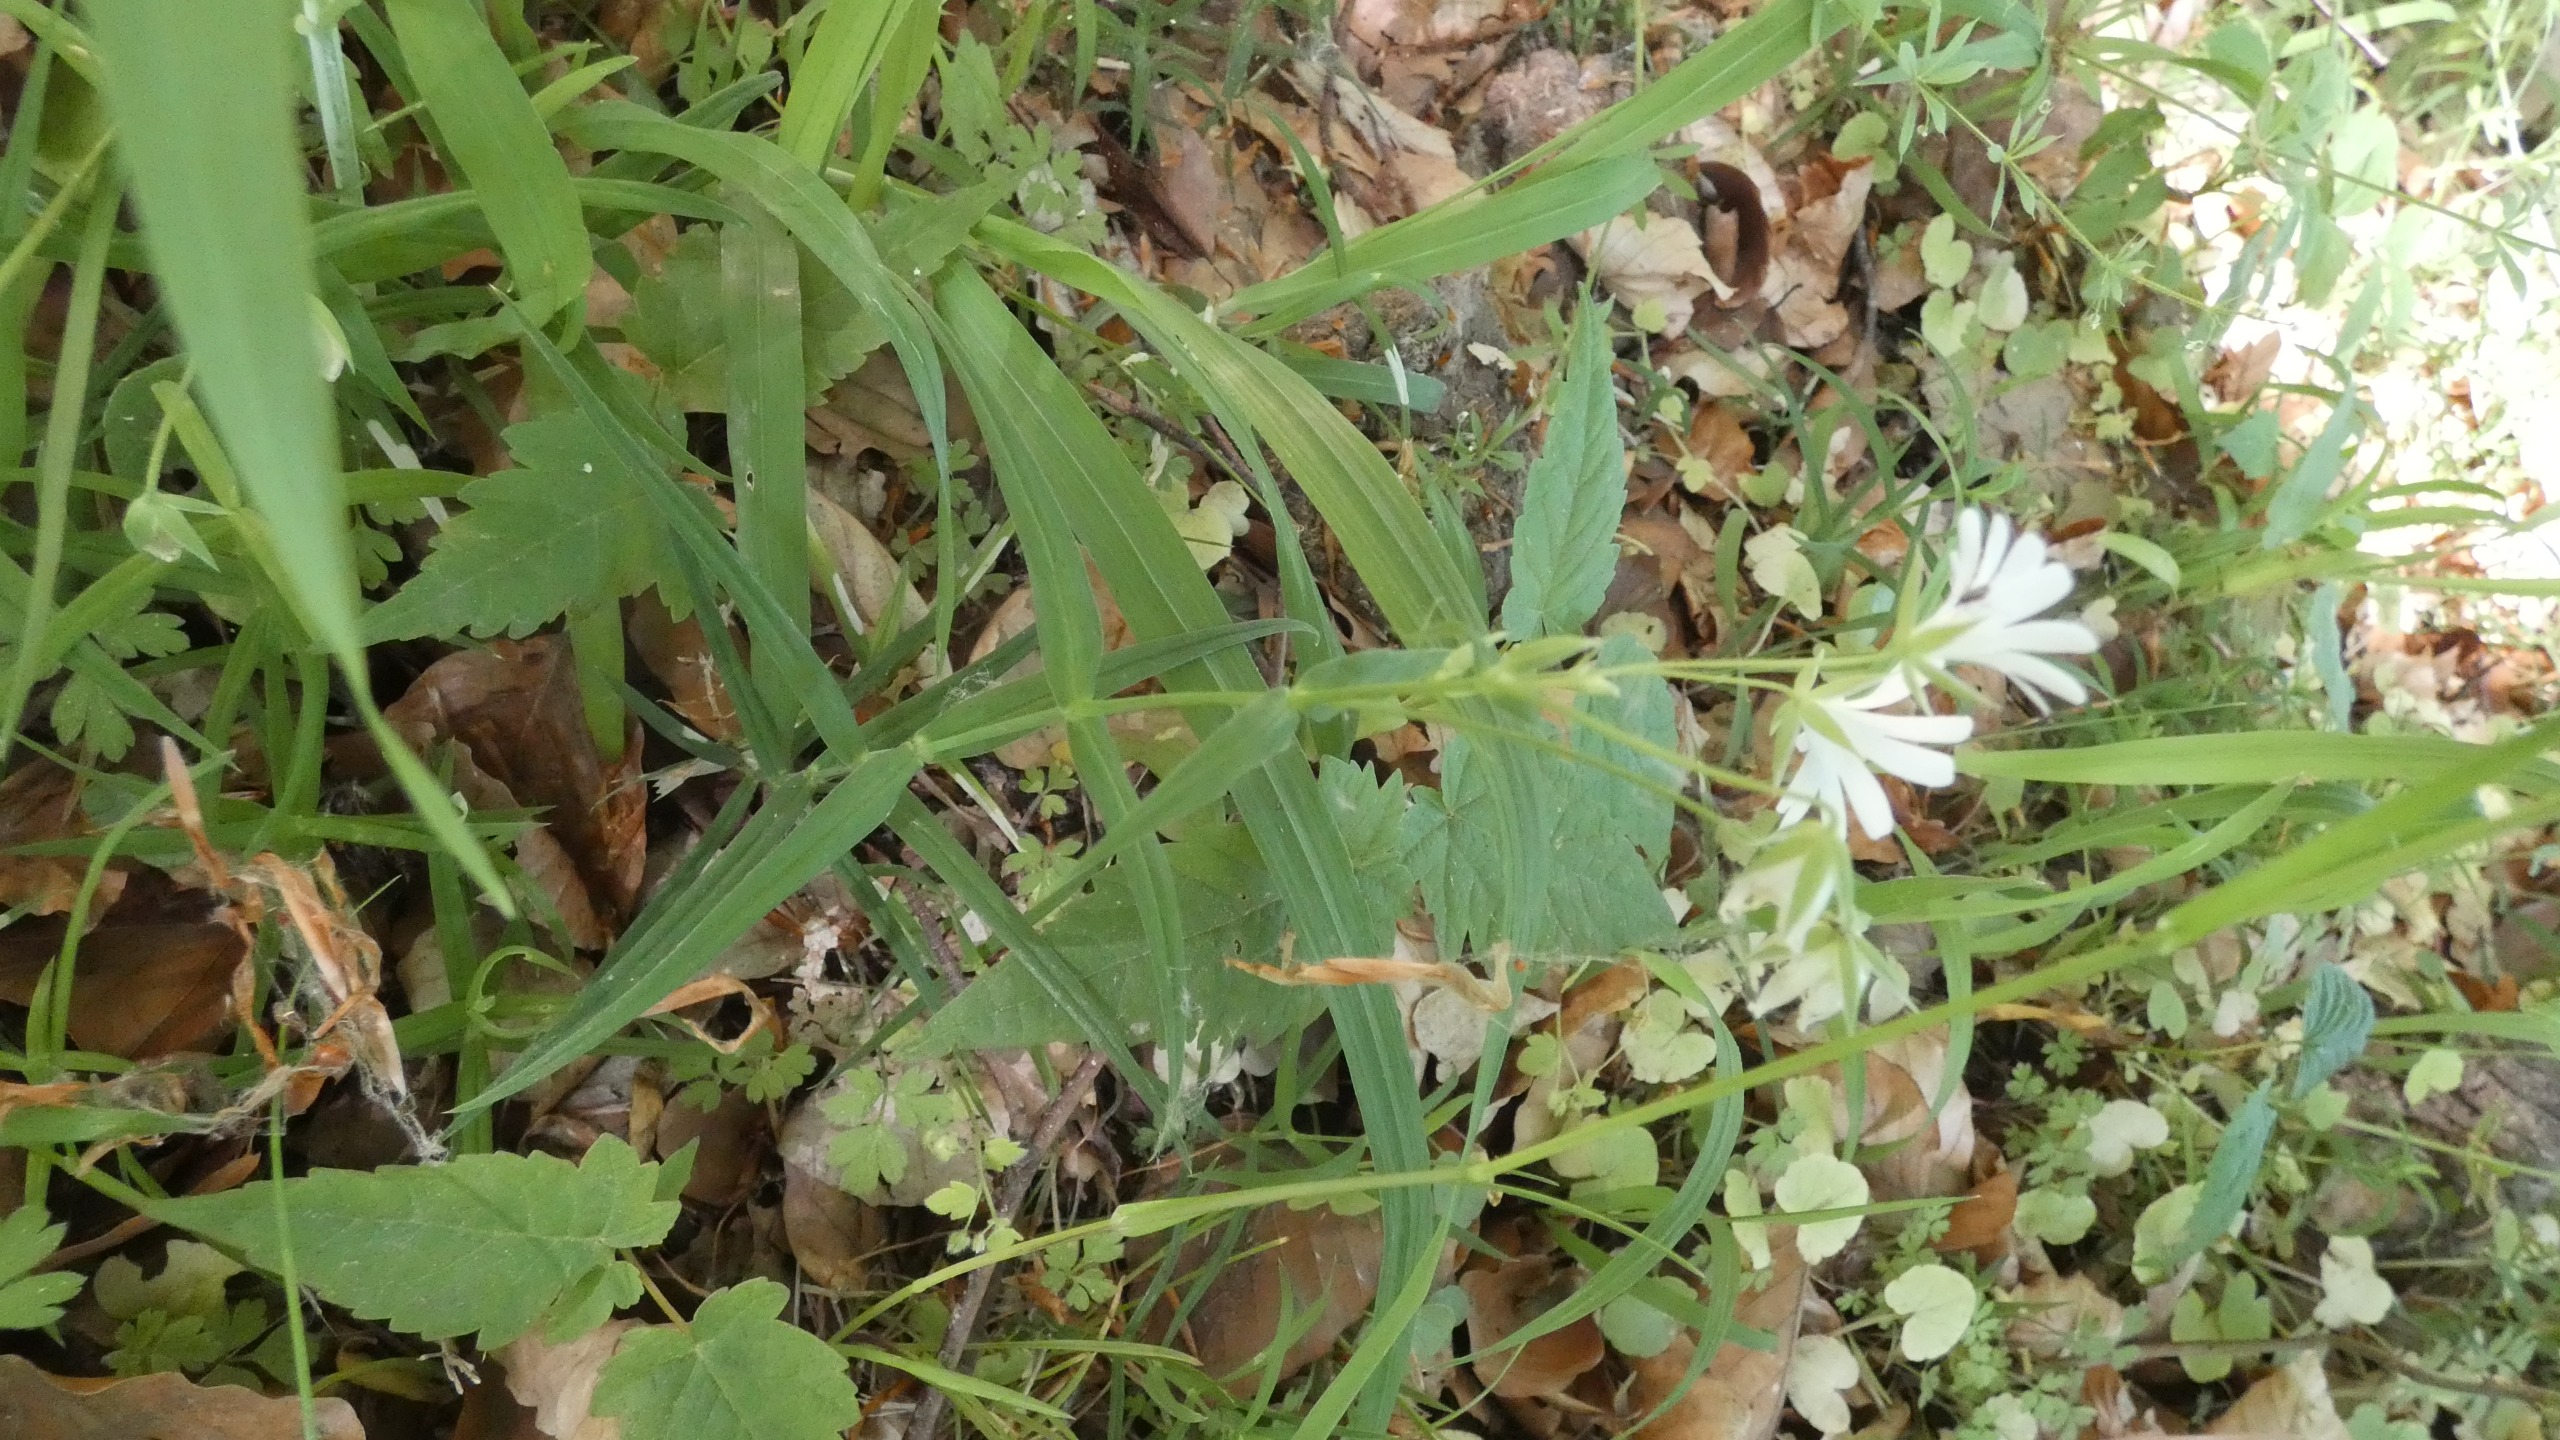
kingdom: Plantae
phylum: Tracheophyta
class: Magnoliopsida
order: Caryophyllales
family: Caryophyllaceae
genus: Rabelera
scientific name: Rabelera holostea
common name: Stor fladstjerne
